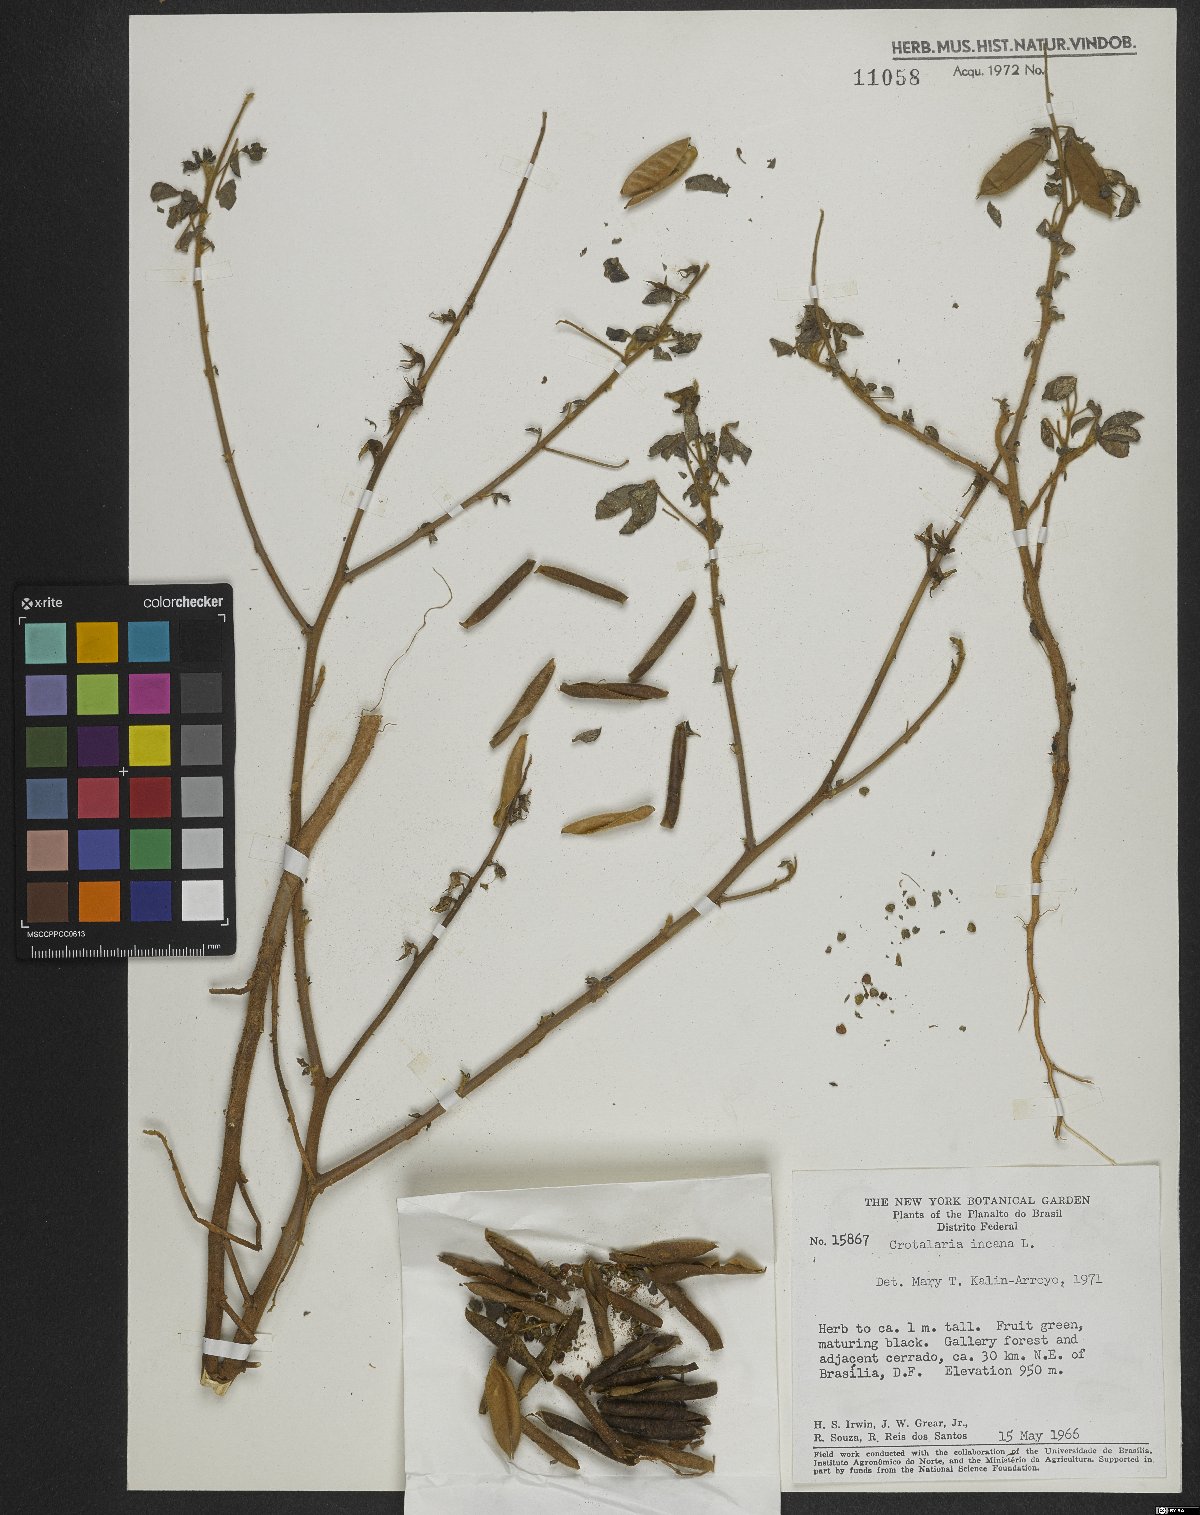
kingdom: Plantae
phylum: Tracheophyta
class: Magnoliopsida
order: Fabales
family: Fabaceae
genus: Crotalaria
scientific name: Crotalaria incana
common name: Shakeshake
